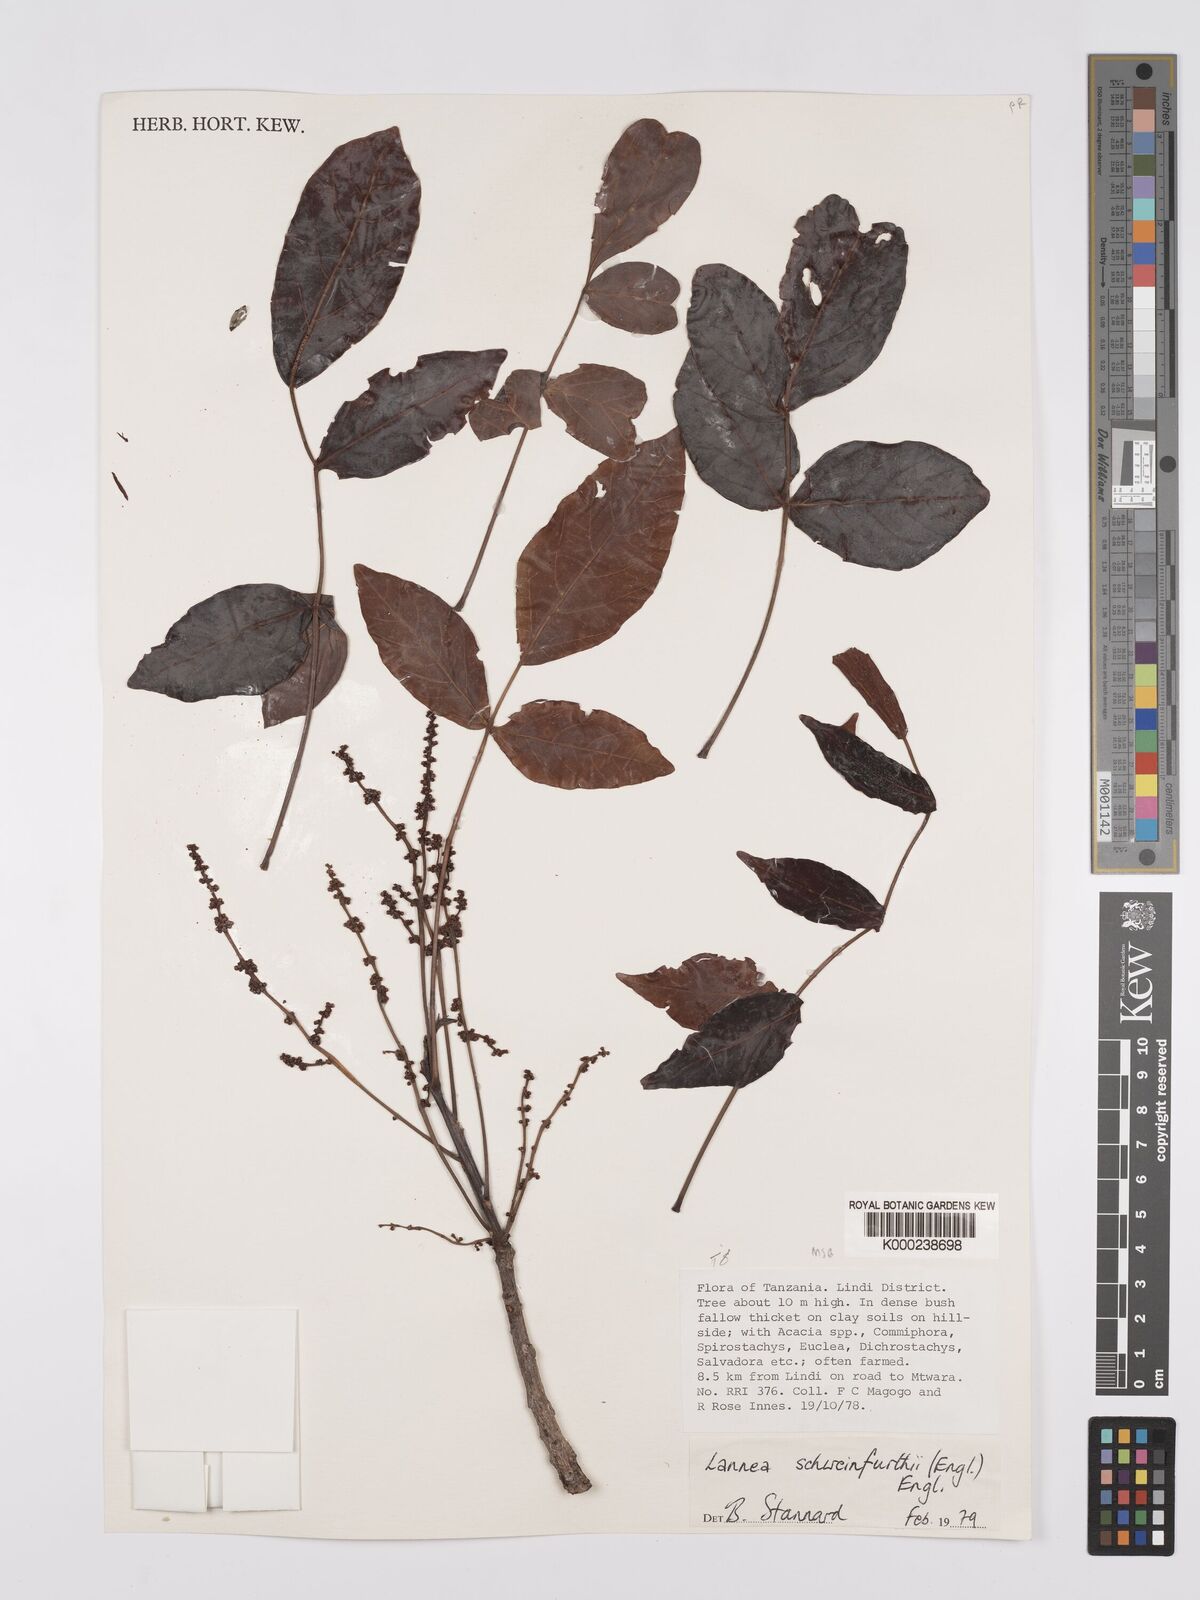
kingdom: Plantae
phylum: Tracheophyta
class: Magnoliopsida
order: Sapindales
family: Anacardiaceae
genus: Lannea
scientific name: Lannea schweinfurthii
